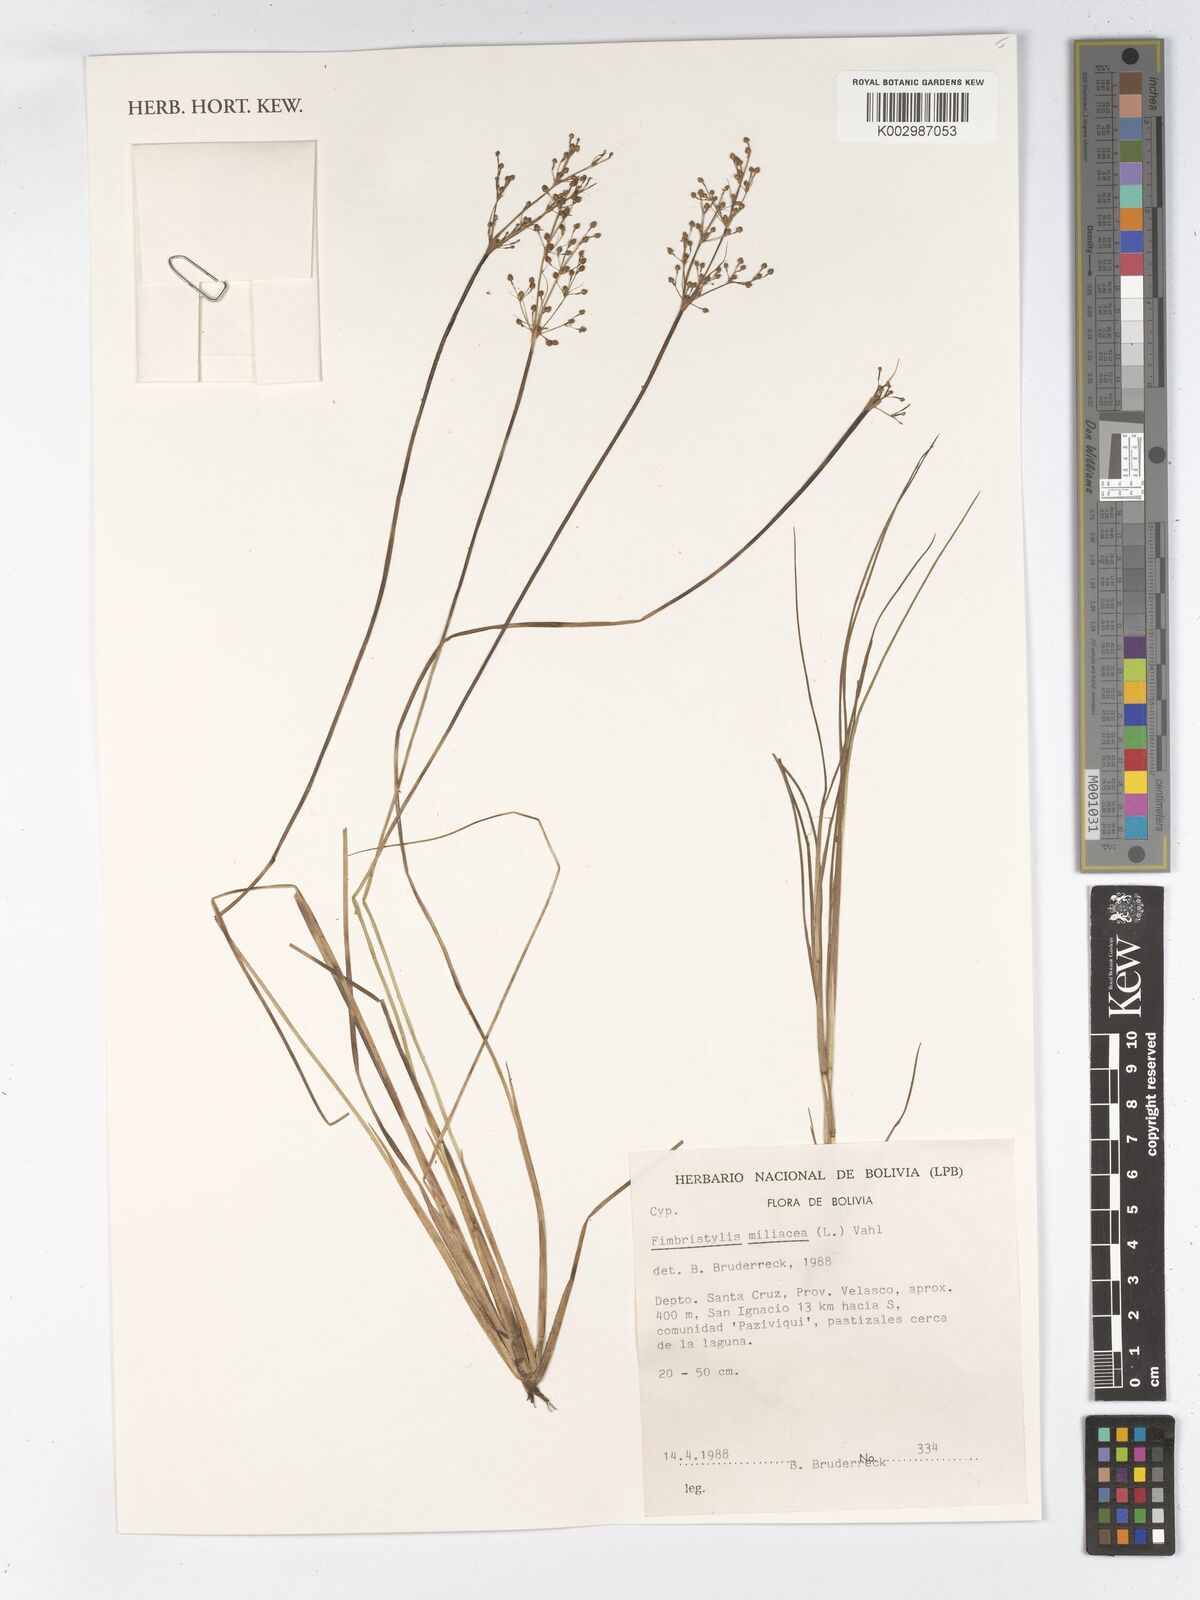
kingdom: Plantae
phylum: Tracheophyta
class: Liliopsida
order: Poales
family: Cyperaceae
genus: Fimbristylis
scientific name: Fimbristylis littoralis
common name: Fimbry
